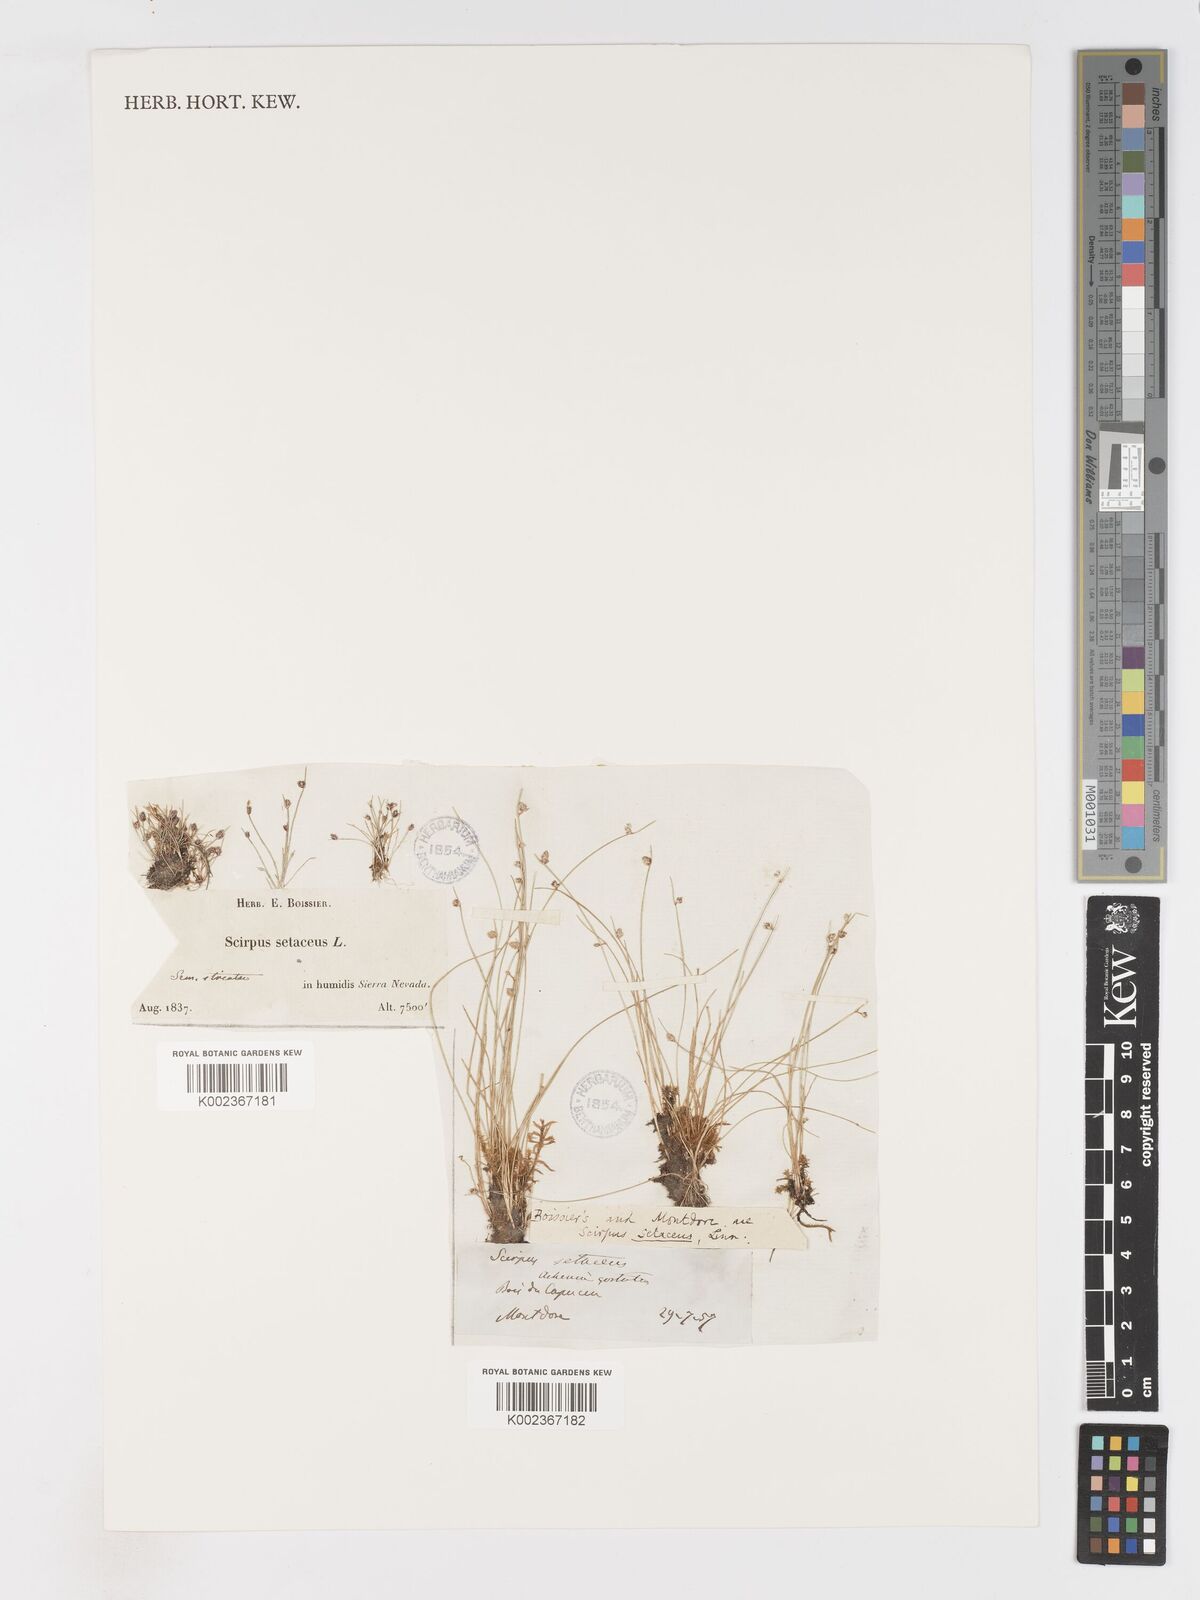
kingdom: Plantae
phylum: Tracheophyta
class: Liliopsida
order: Poales
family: Cyperaceae
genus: Isolepis
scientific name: Isolepis setacea
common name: Bristle club-rush
